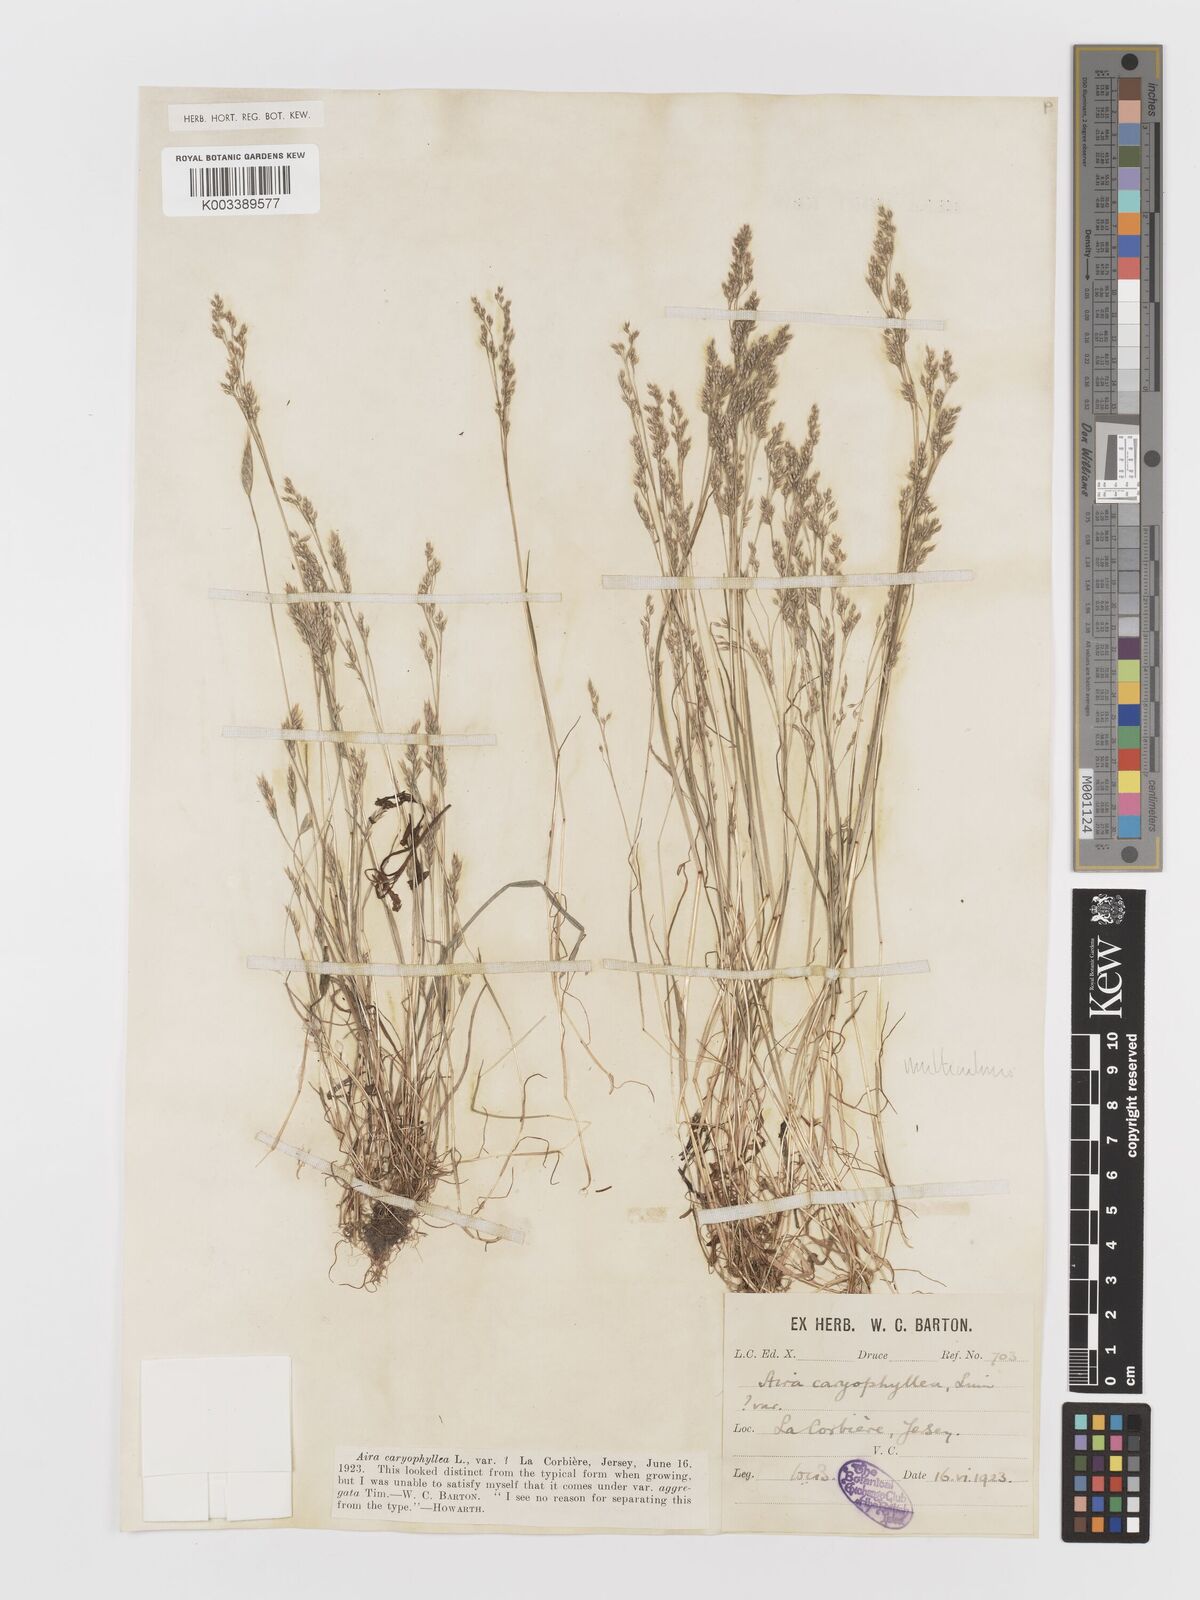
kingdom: Plantae
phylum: Tracheophyta
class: Liliopsida
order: Poales
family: Poaceae
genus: Aira
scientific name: Aira caryophyllea
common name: Silver hairgrass
